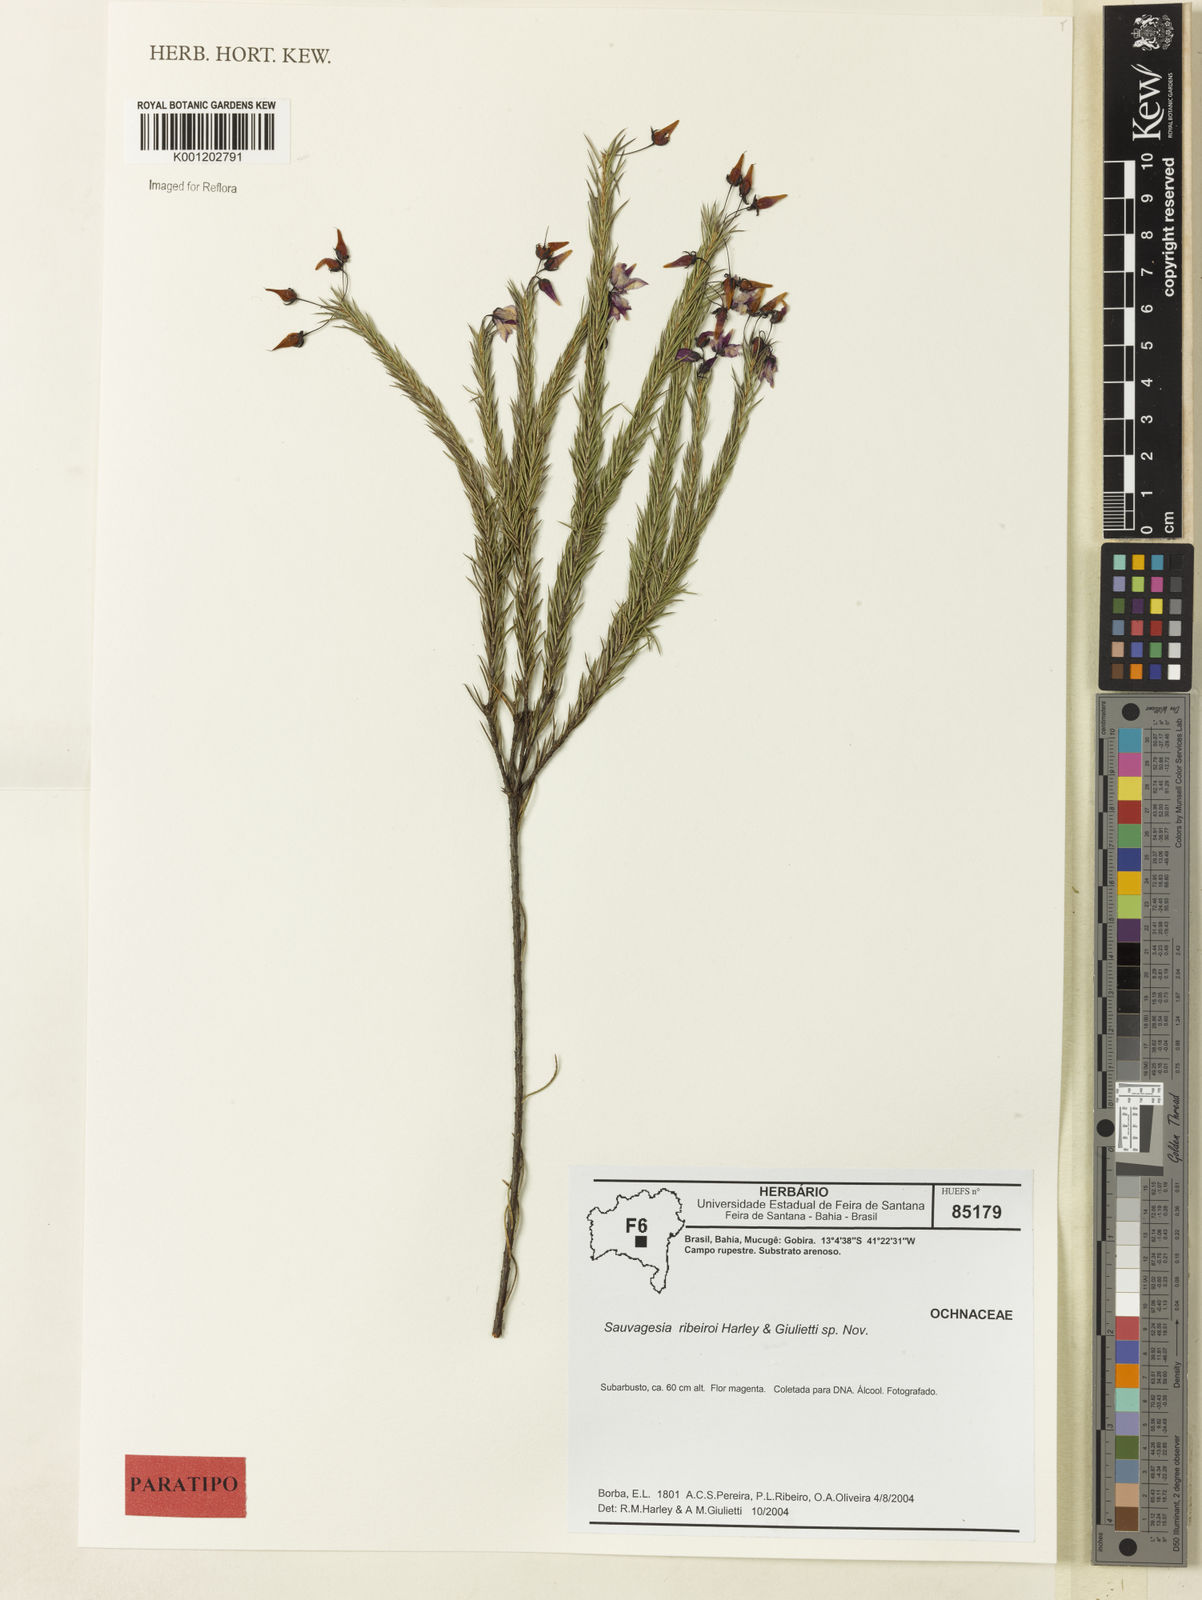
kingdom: Plantae
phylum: Tracheophyta
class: Magnoliopsida
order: Malpighiales
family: Ochnaceae
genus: Sauvagesia
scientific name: Sauvagesia ribeiroi
